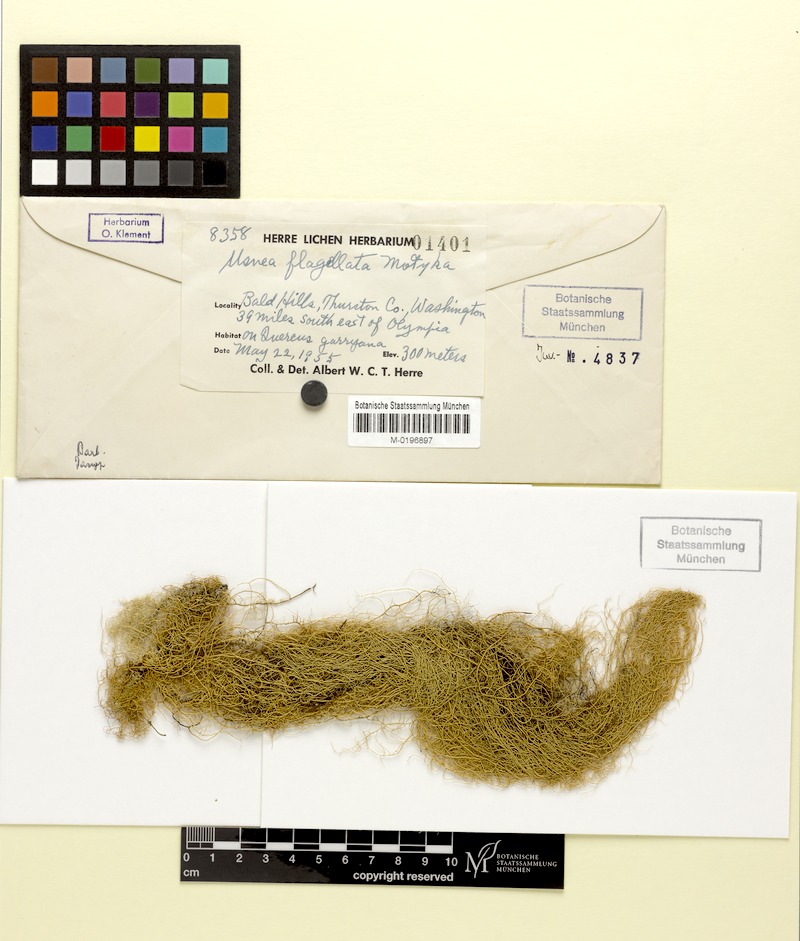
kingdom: Fungi
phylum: Ascomycota
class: Lecanoromycetes
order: Lecanorales
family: Parmeliaceae
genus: Usnea
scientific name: Usnea dasopoga
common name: Fishbone beard lichen
